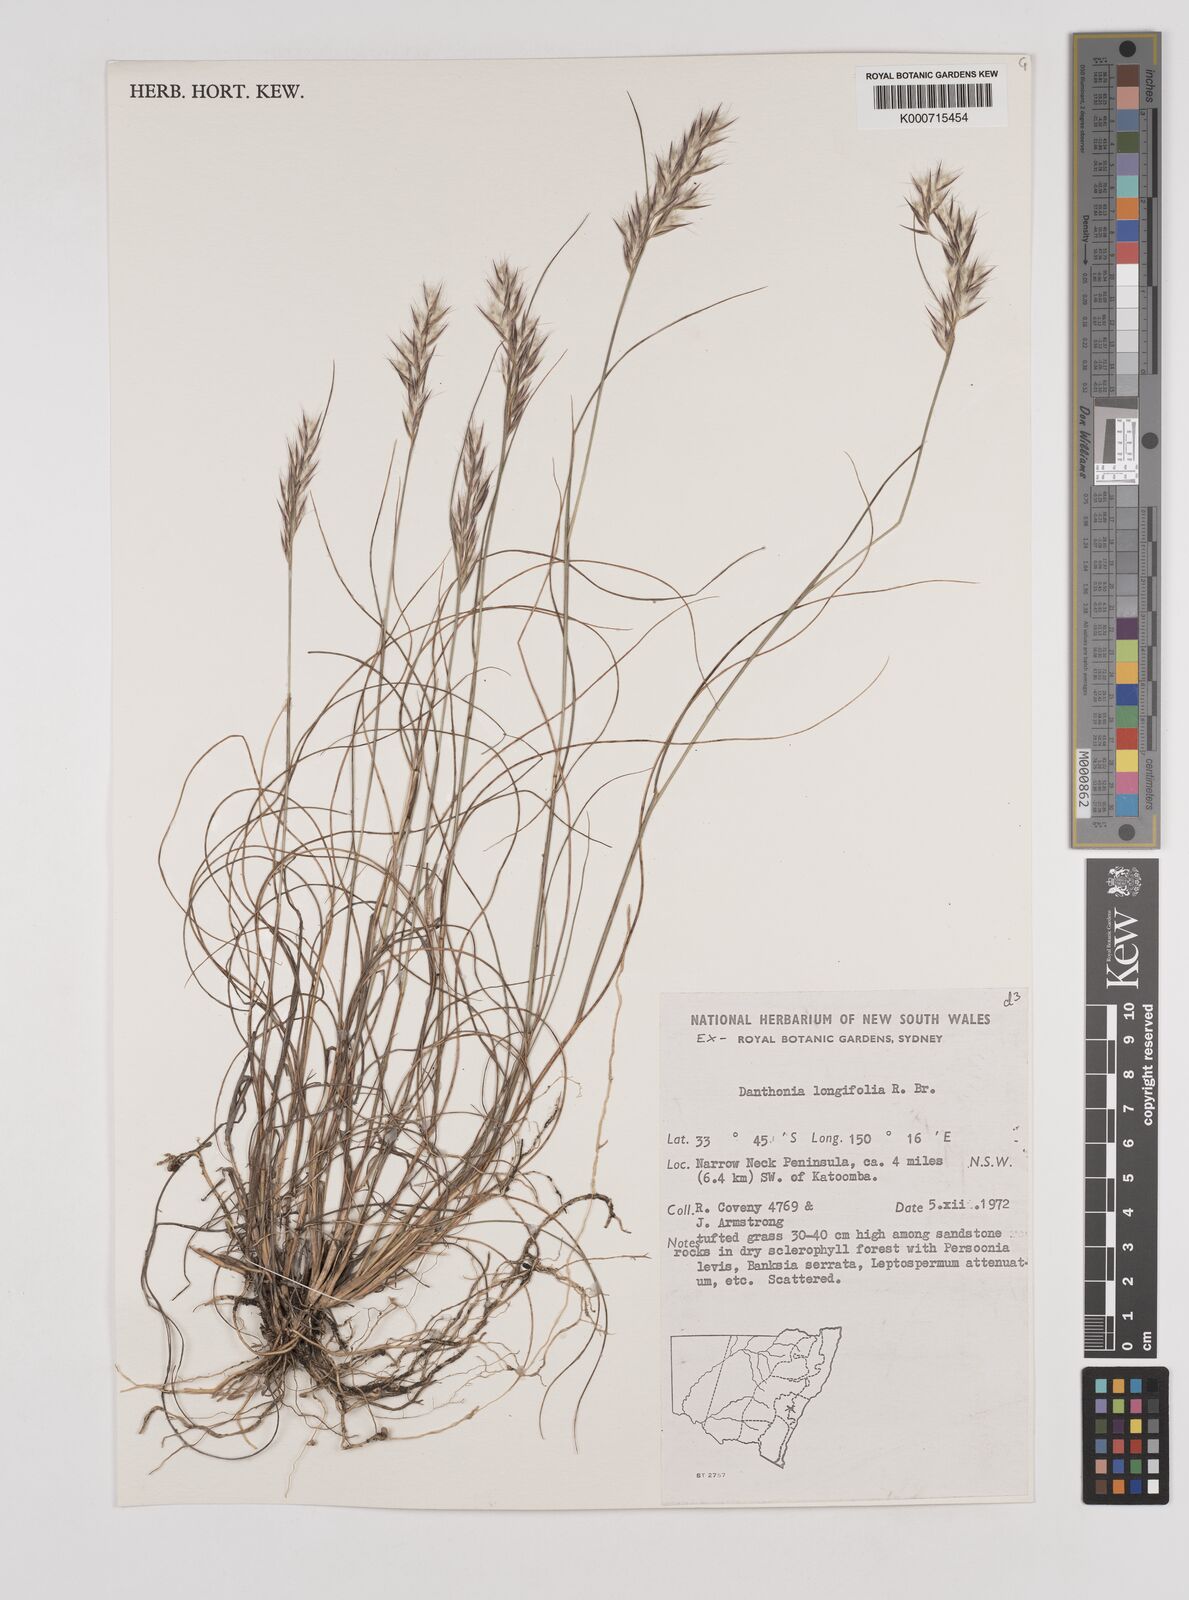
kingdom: Plantae
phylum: Tracheophyta
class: Liliopsida
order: Poales
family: Poaceae
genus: Rytidosperma
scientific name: Rytidosperma longifolium
